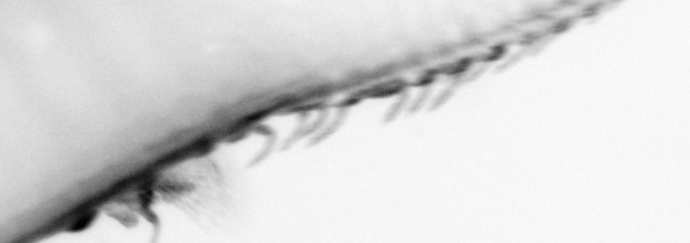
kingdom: Animalia
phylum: Chordata
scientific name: Chordata
